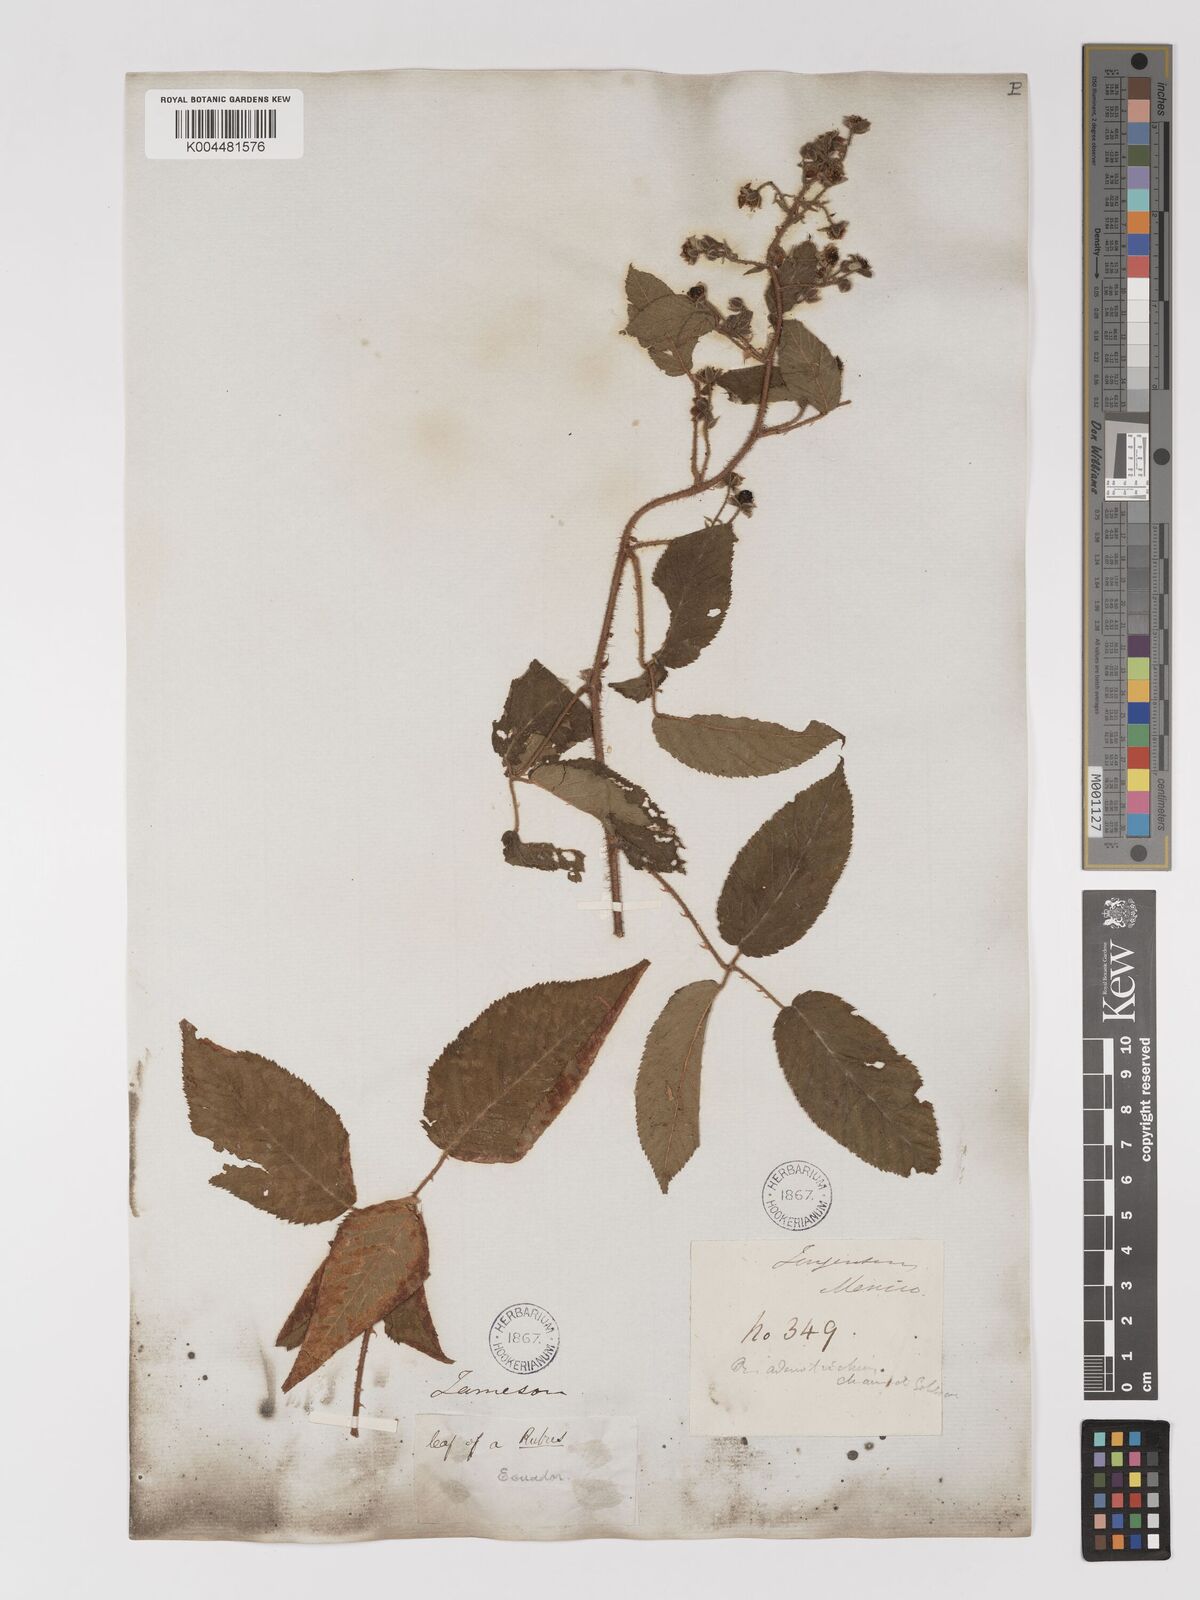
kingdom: Plantae
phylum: Tracheophyta
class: Magnoliopsida
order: Rosales
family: Rosaceae
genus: Rubus
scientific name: Rubus adenotrichos
